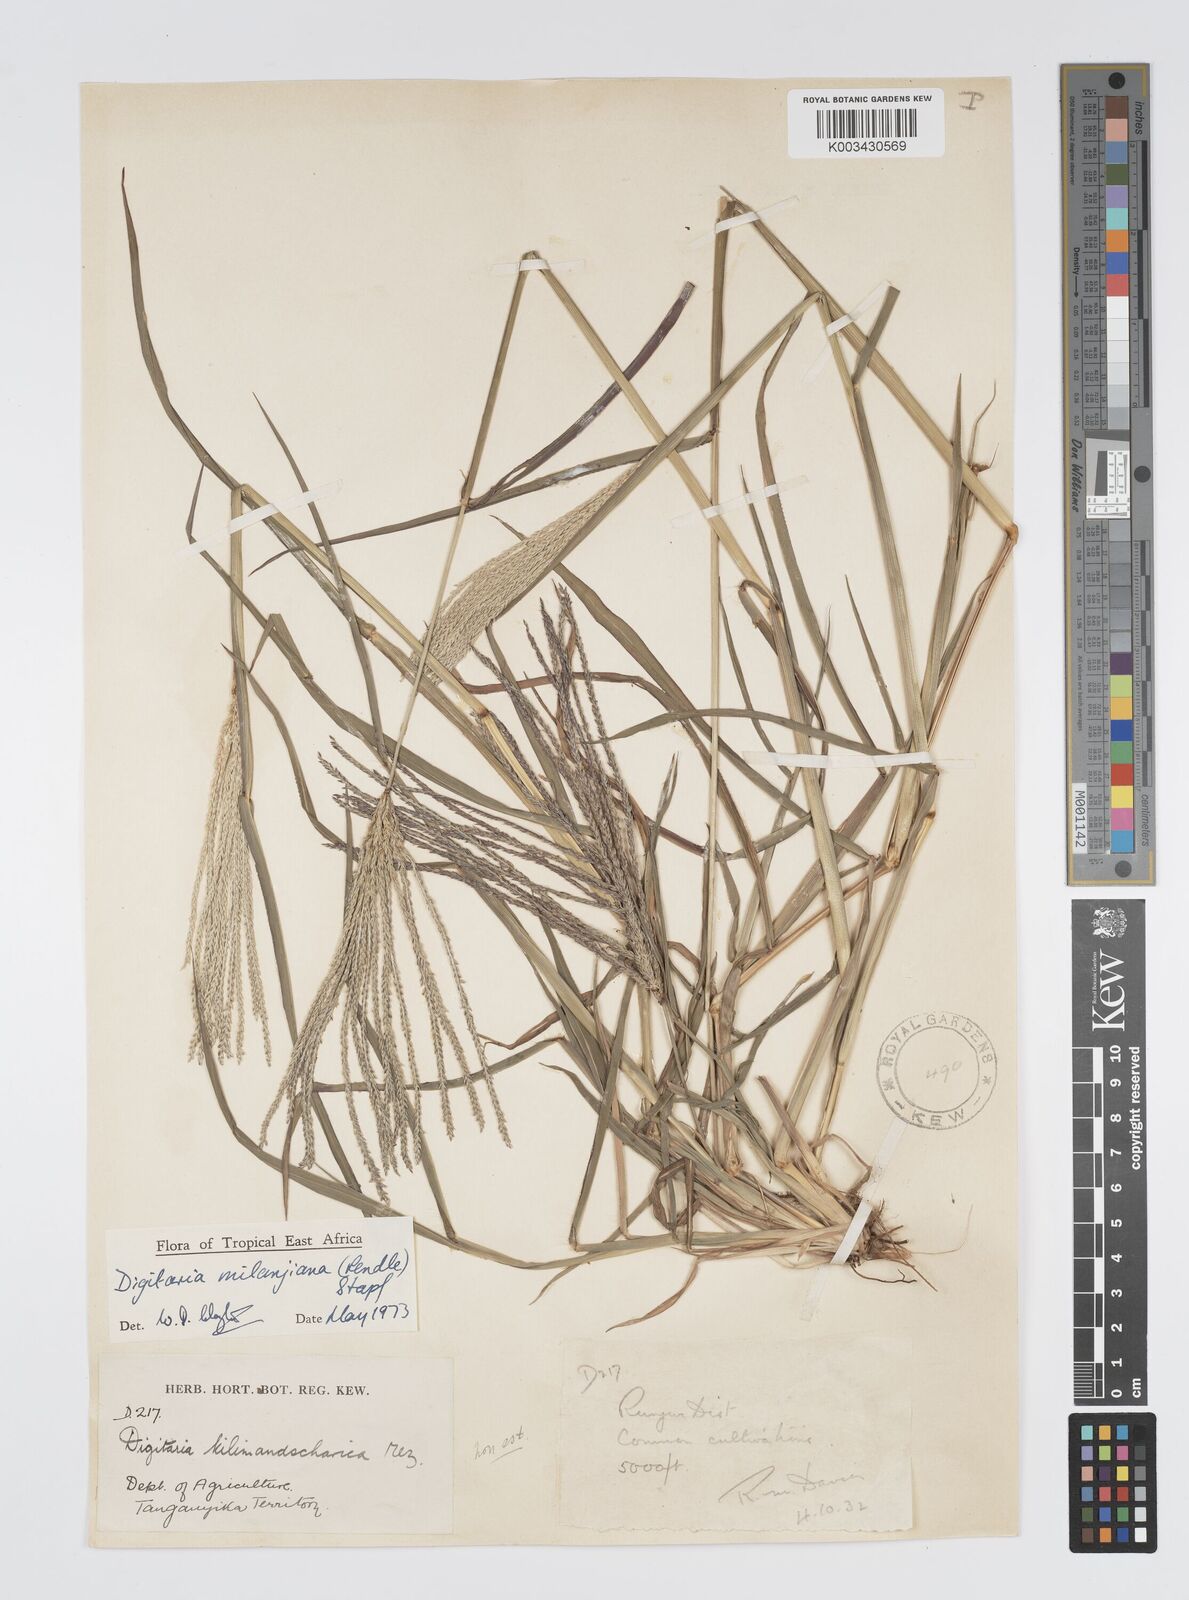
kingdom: Plantae
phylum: Tracheophyta
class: Liliopsida
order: Poales
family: Poaceae
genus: Digitaria
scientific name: Digitaria milanjiana
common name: Madagascar crabgrass
